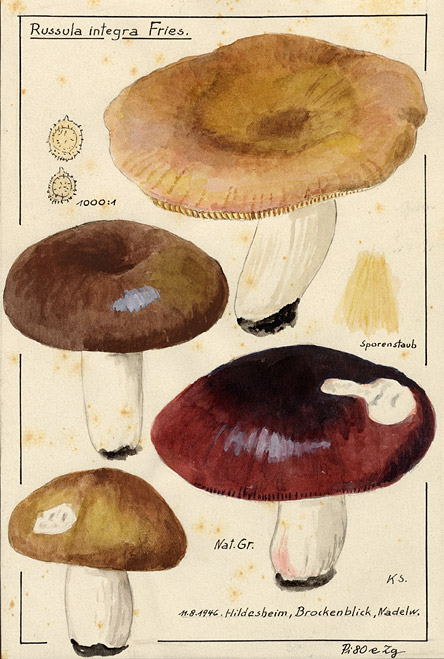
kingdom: Fungi
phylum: Basidiomycota
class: Agaricomycetes
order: Russulales
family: Russulaceae
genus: Russula
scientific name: Russula integra
